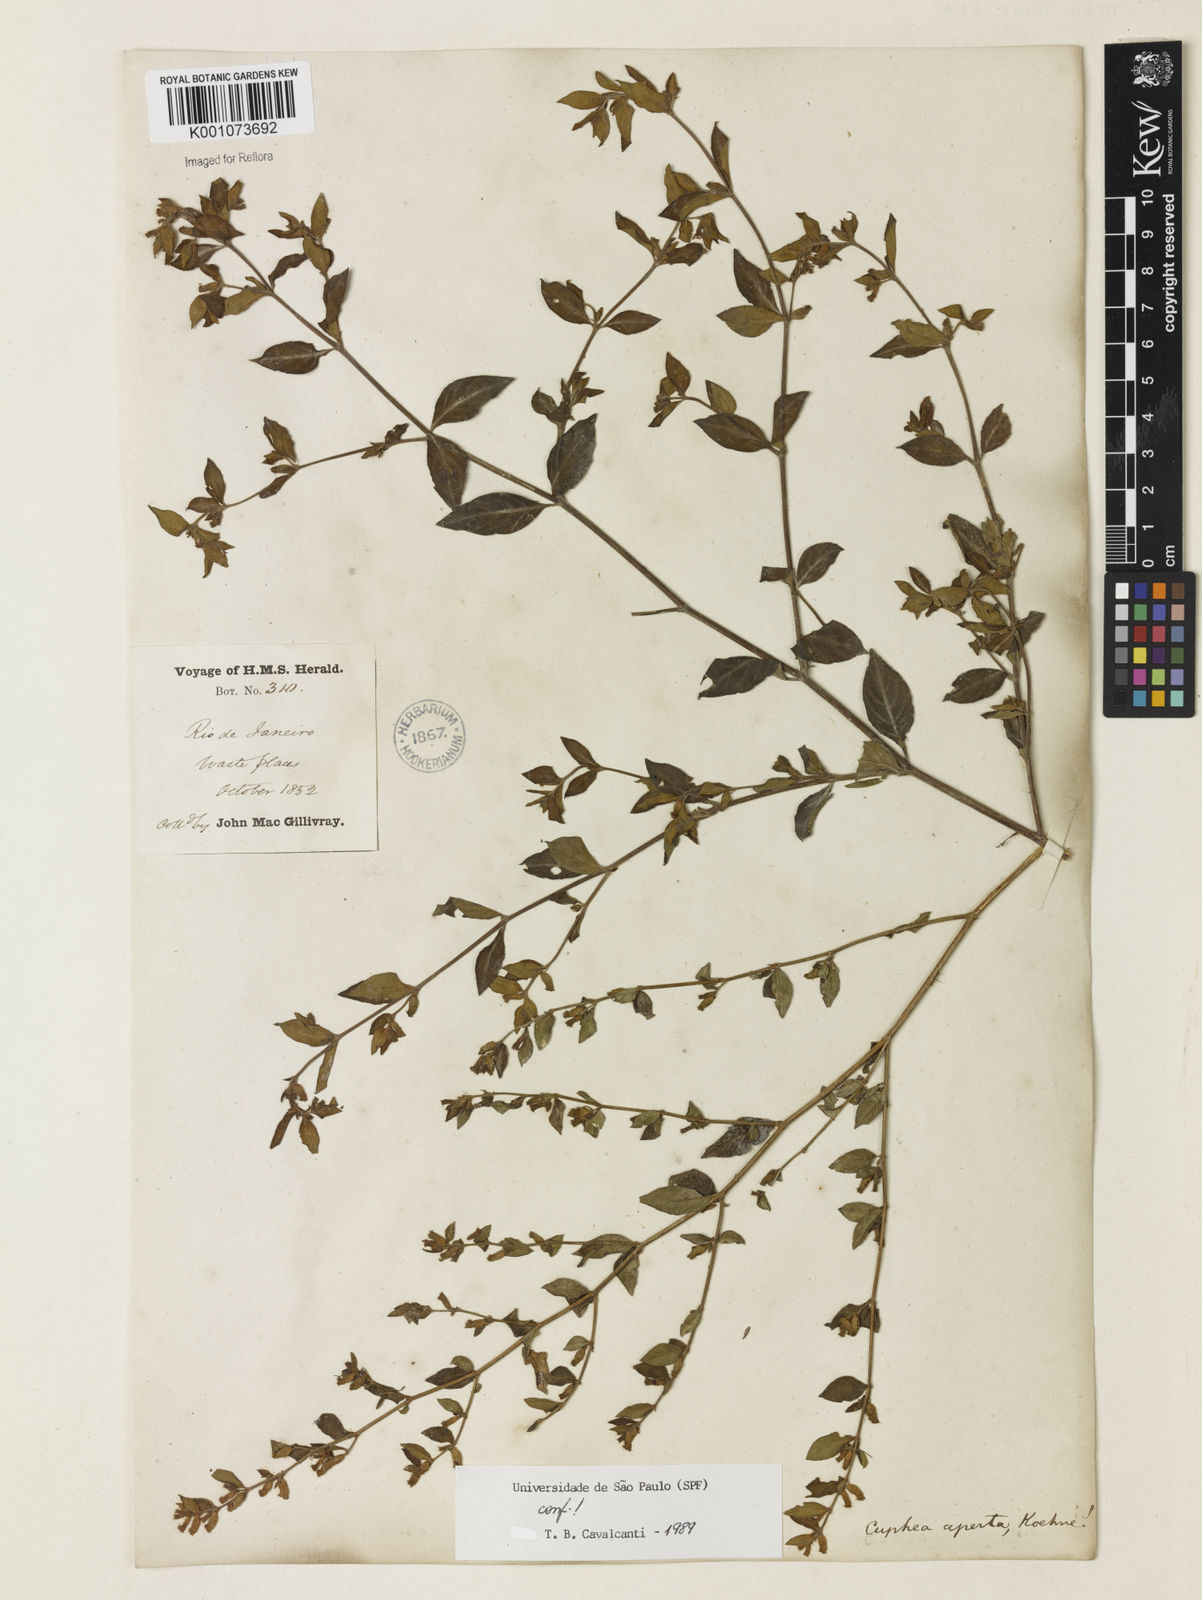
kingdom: Plantae
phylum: Tracheophyta
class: Magnoliopsida
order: Myrtales
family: Lythraceae
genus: Cuphea
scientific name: Cuphea aperta
